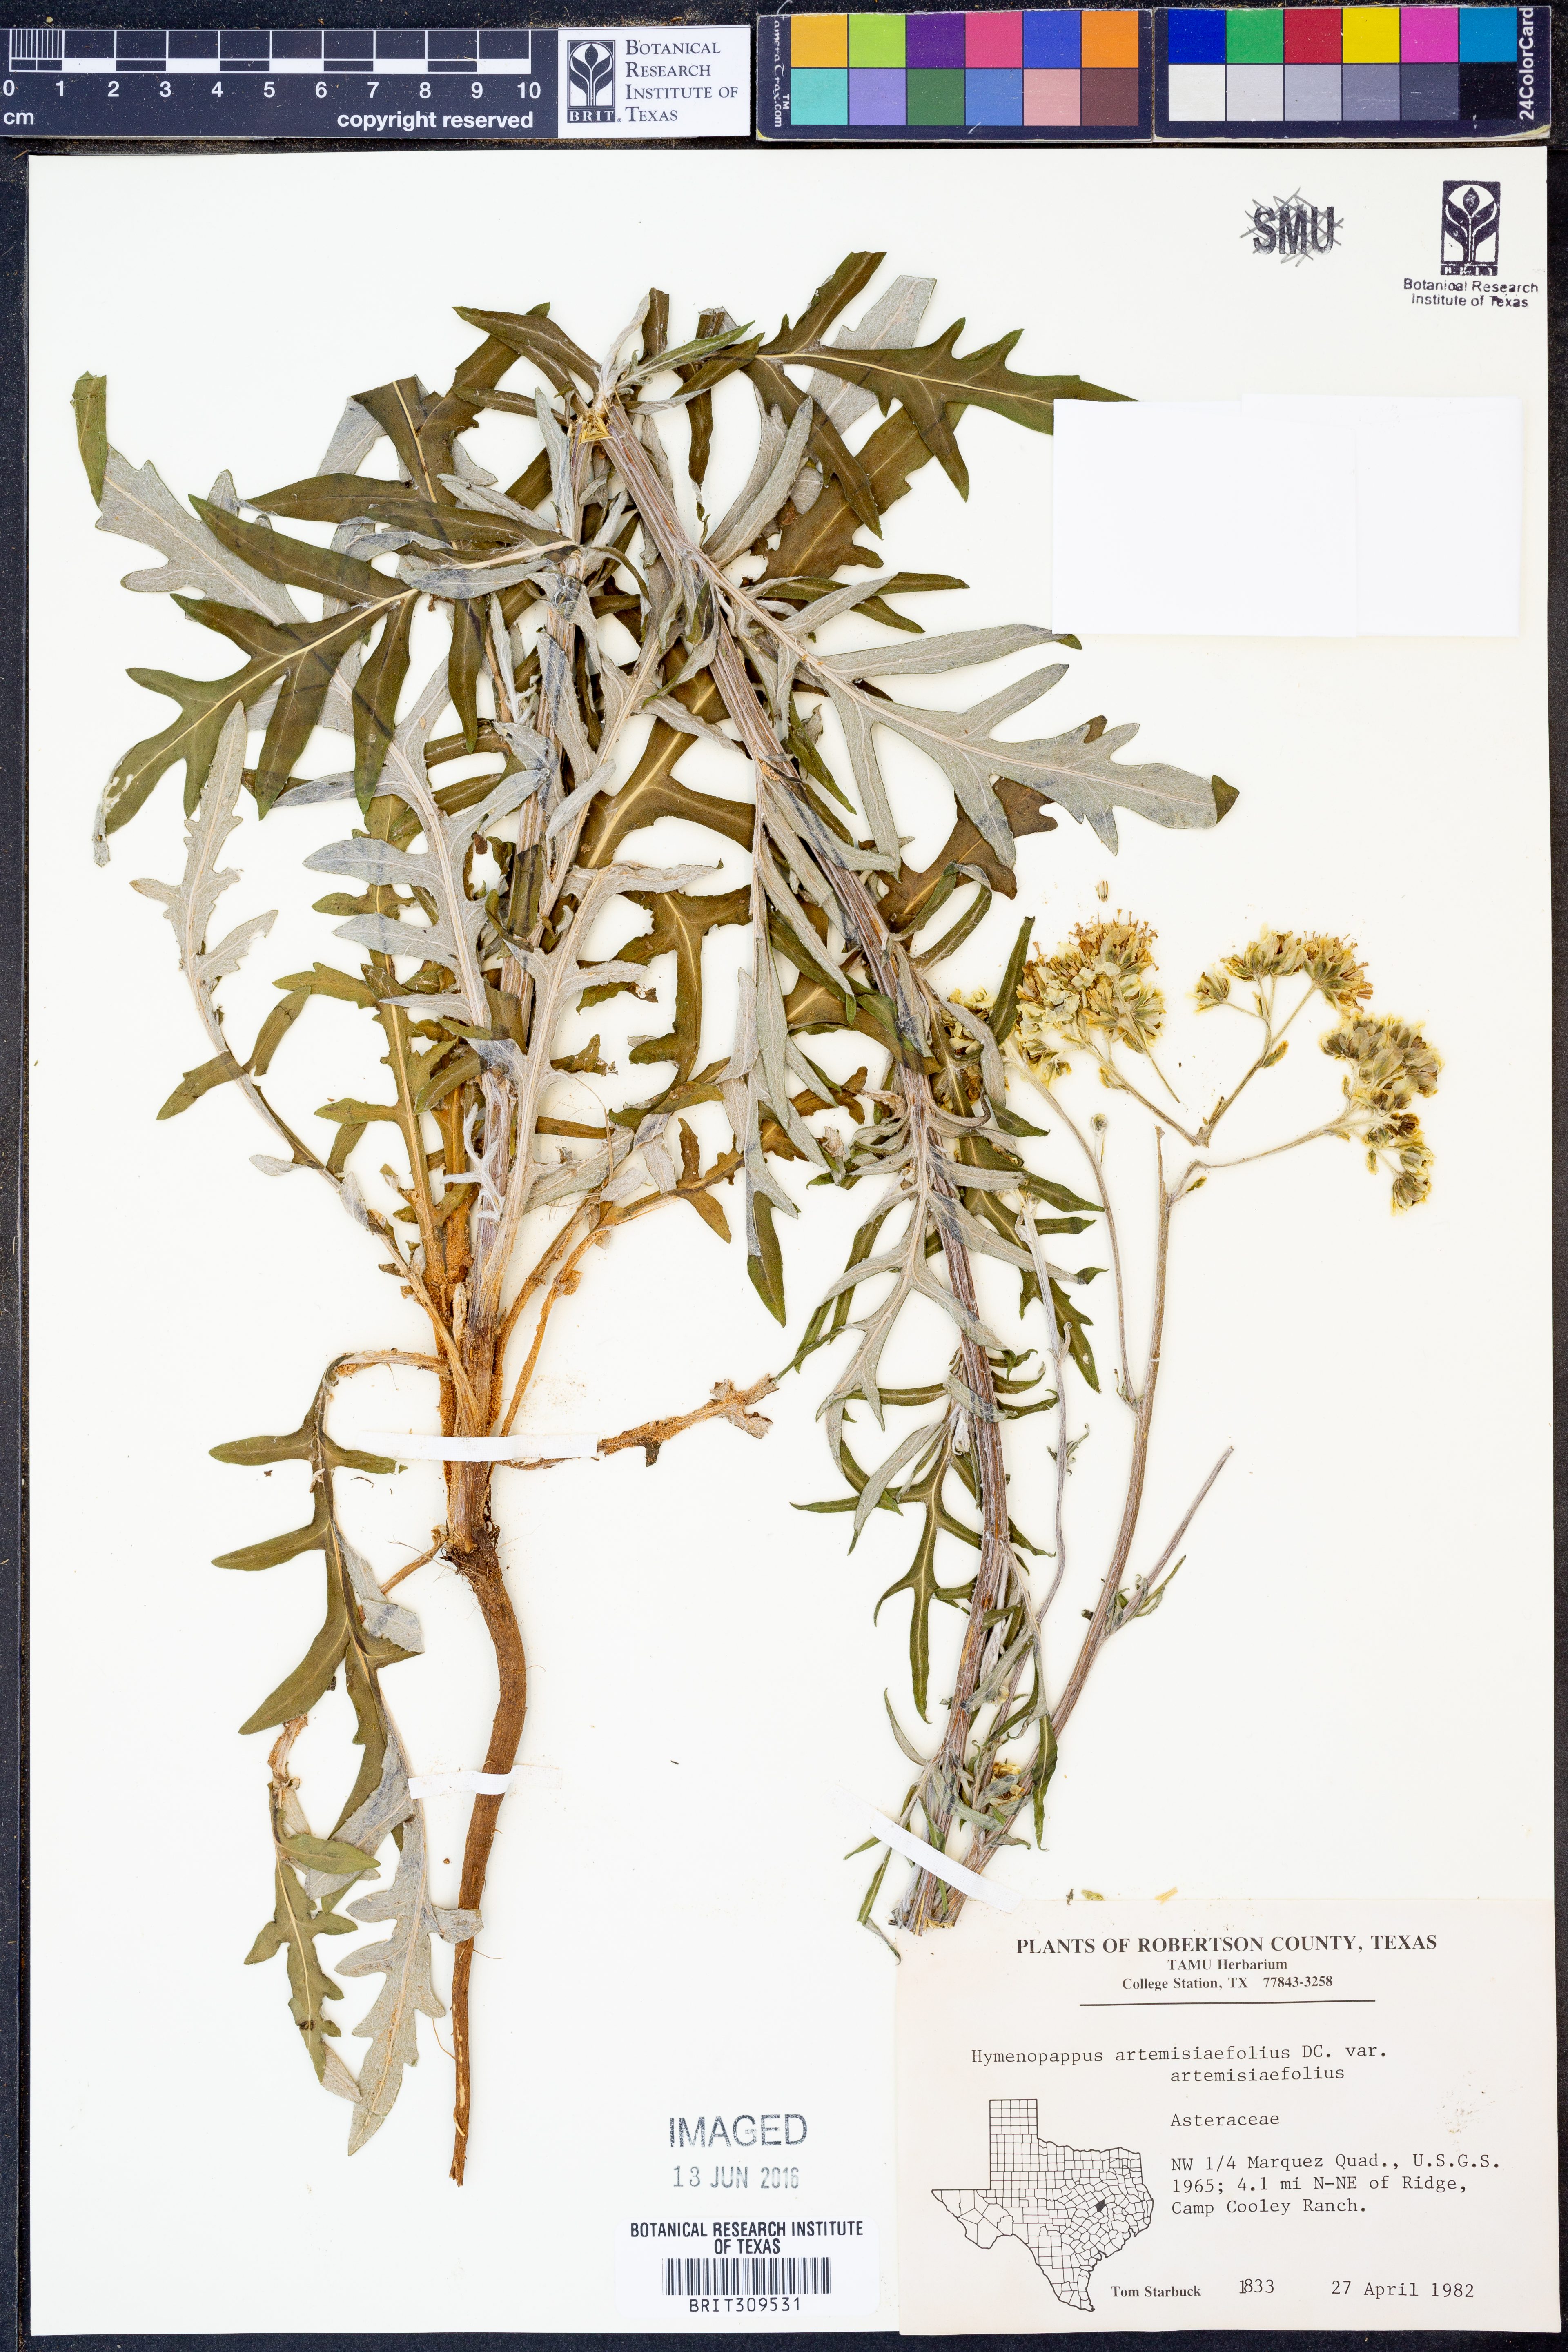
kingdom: Plantae
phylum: Tracheophyta
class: Magnoliopsida
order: Asterales
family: Asteraceae
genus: Hymenopappus
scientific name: Hymenopappus artemisiifolius
